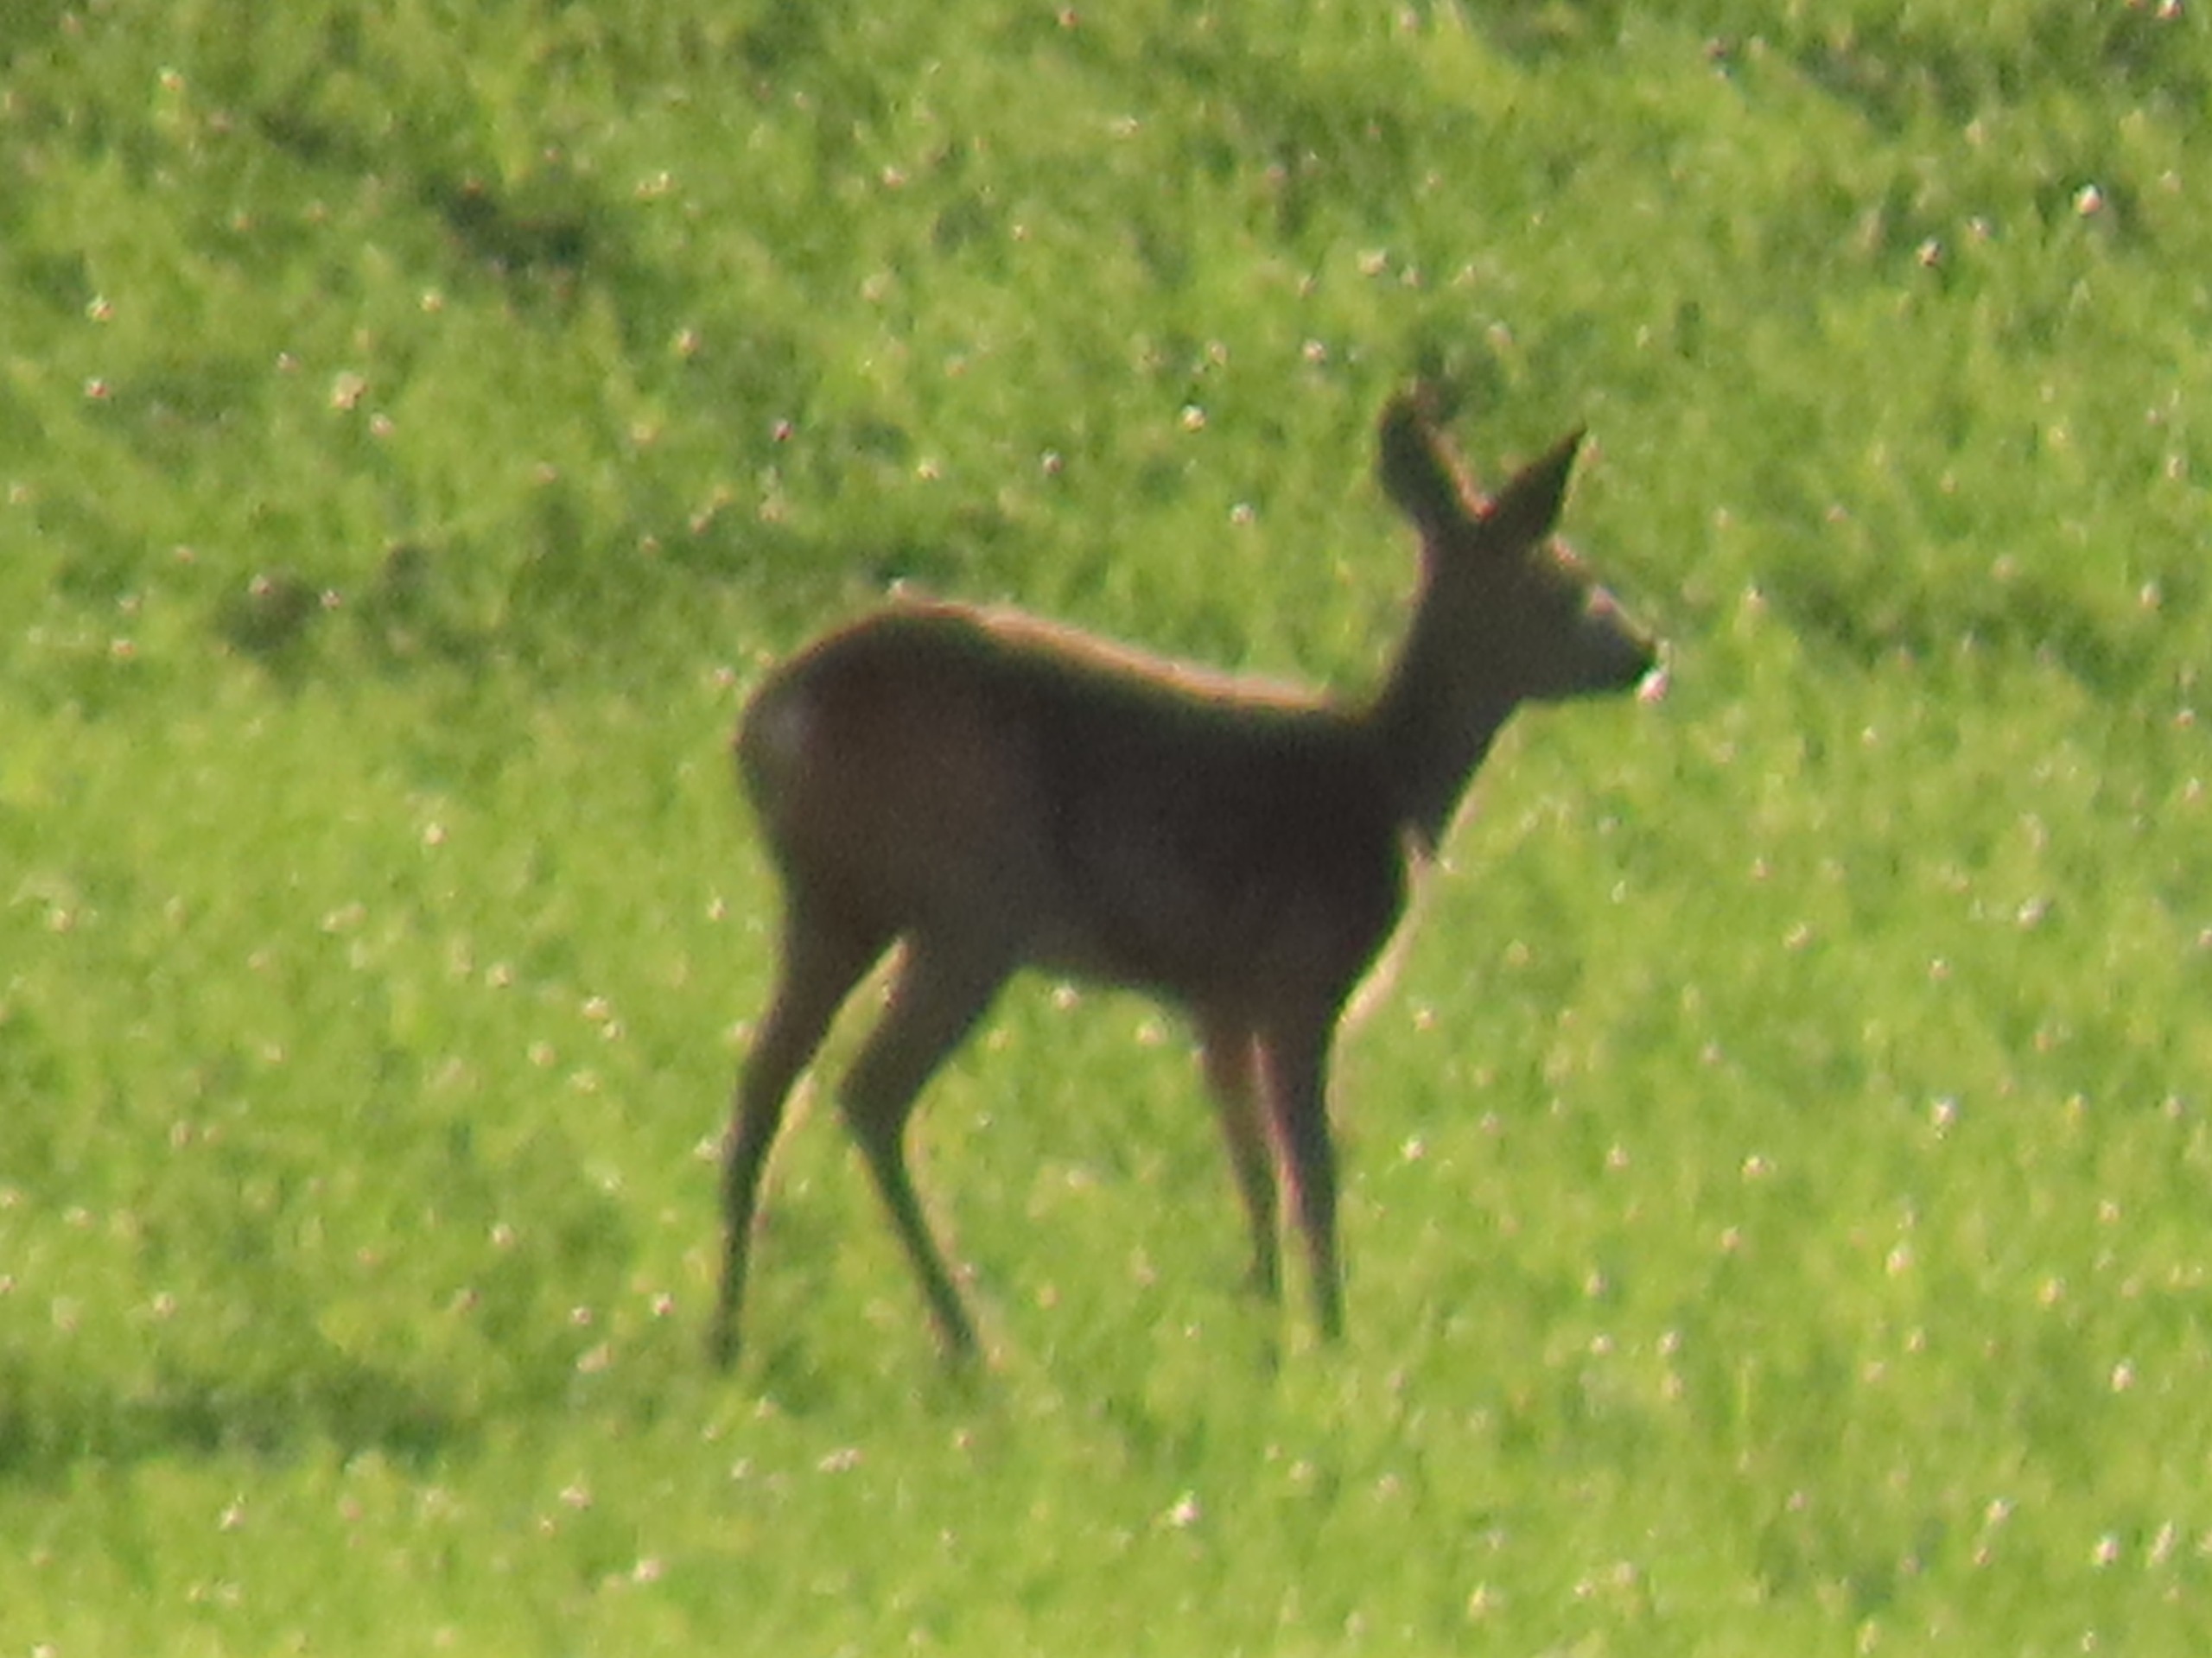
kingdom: Animalia
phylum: Chordata
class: Mammalia
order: Artiodactyla
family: Cervidae
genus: Capreolus
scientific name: Capreolus capreolus
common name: Rådyr
